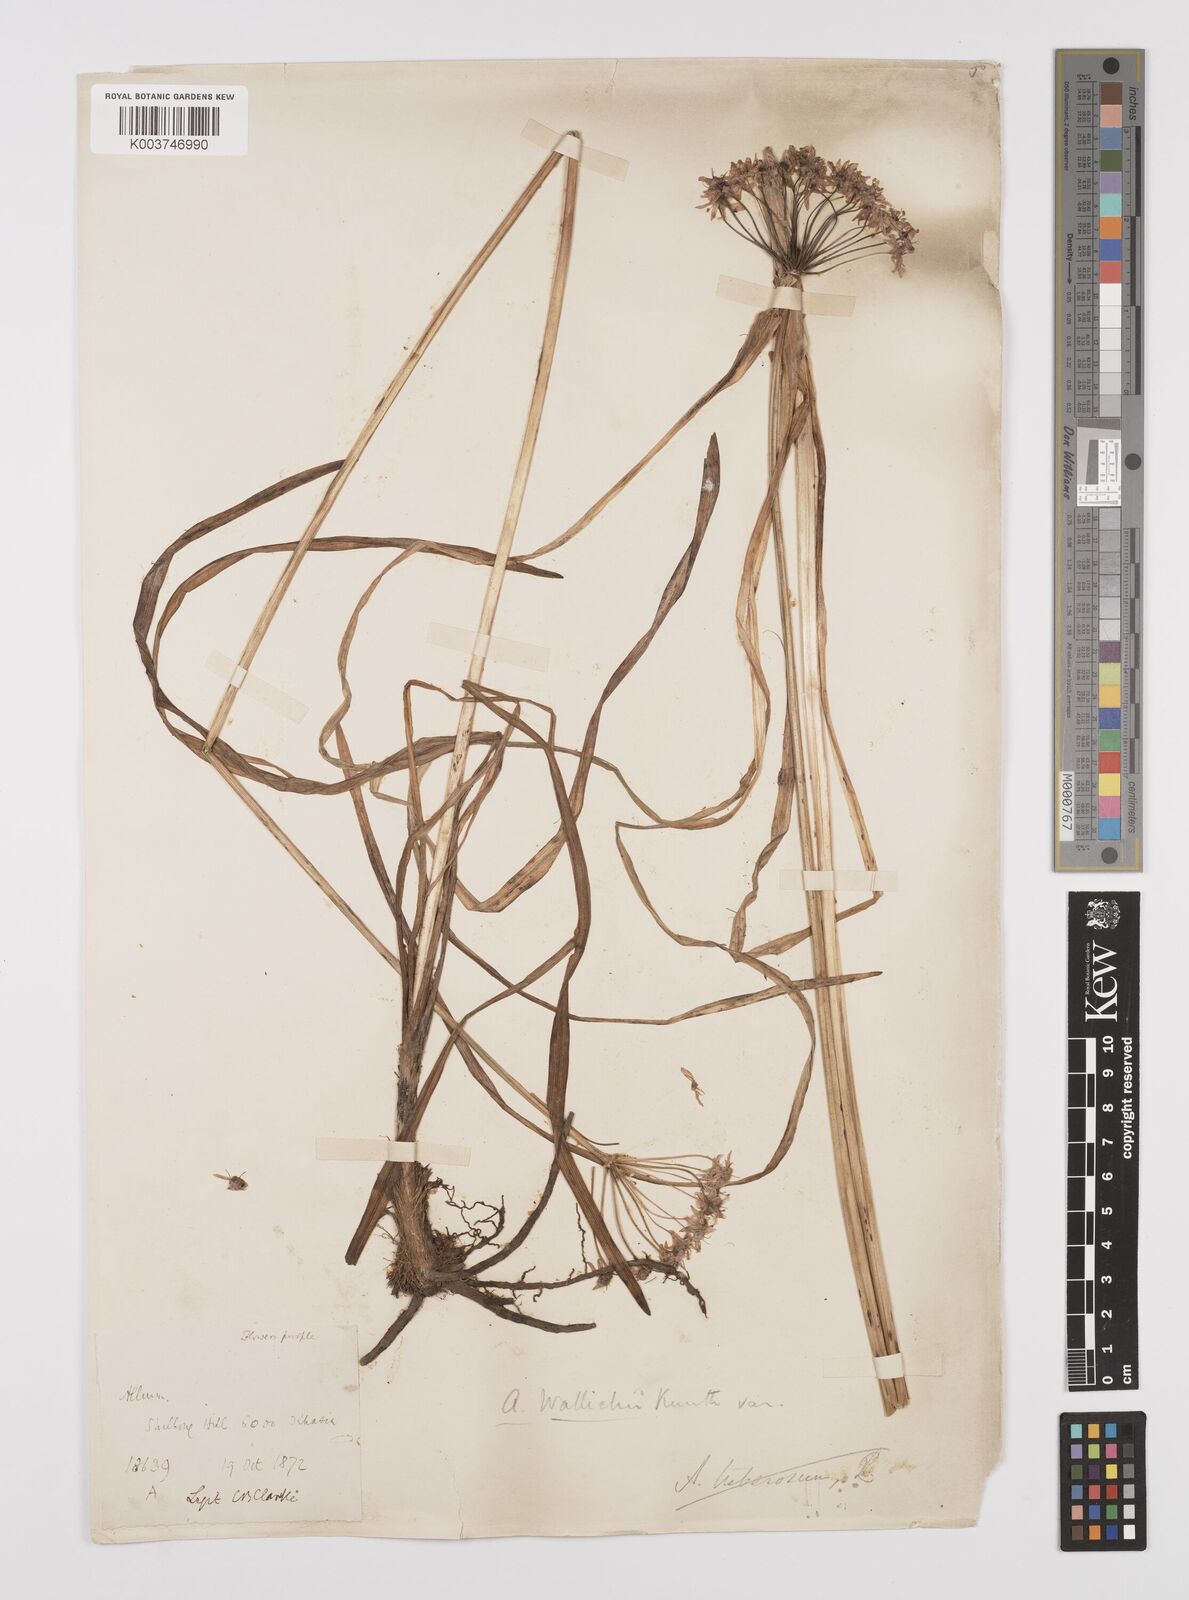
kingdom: Plantae
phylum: Tracheophyta
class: Liliopsida
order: Asparagales
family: Amaryllidaceae
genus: Allium
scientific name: Allium wallichii
